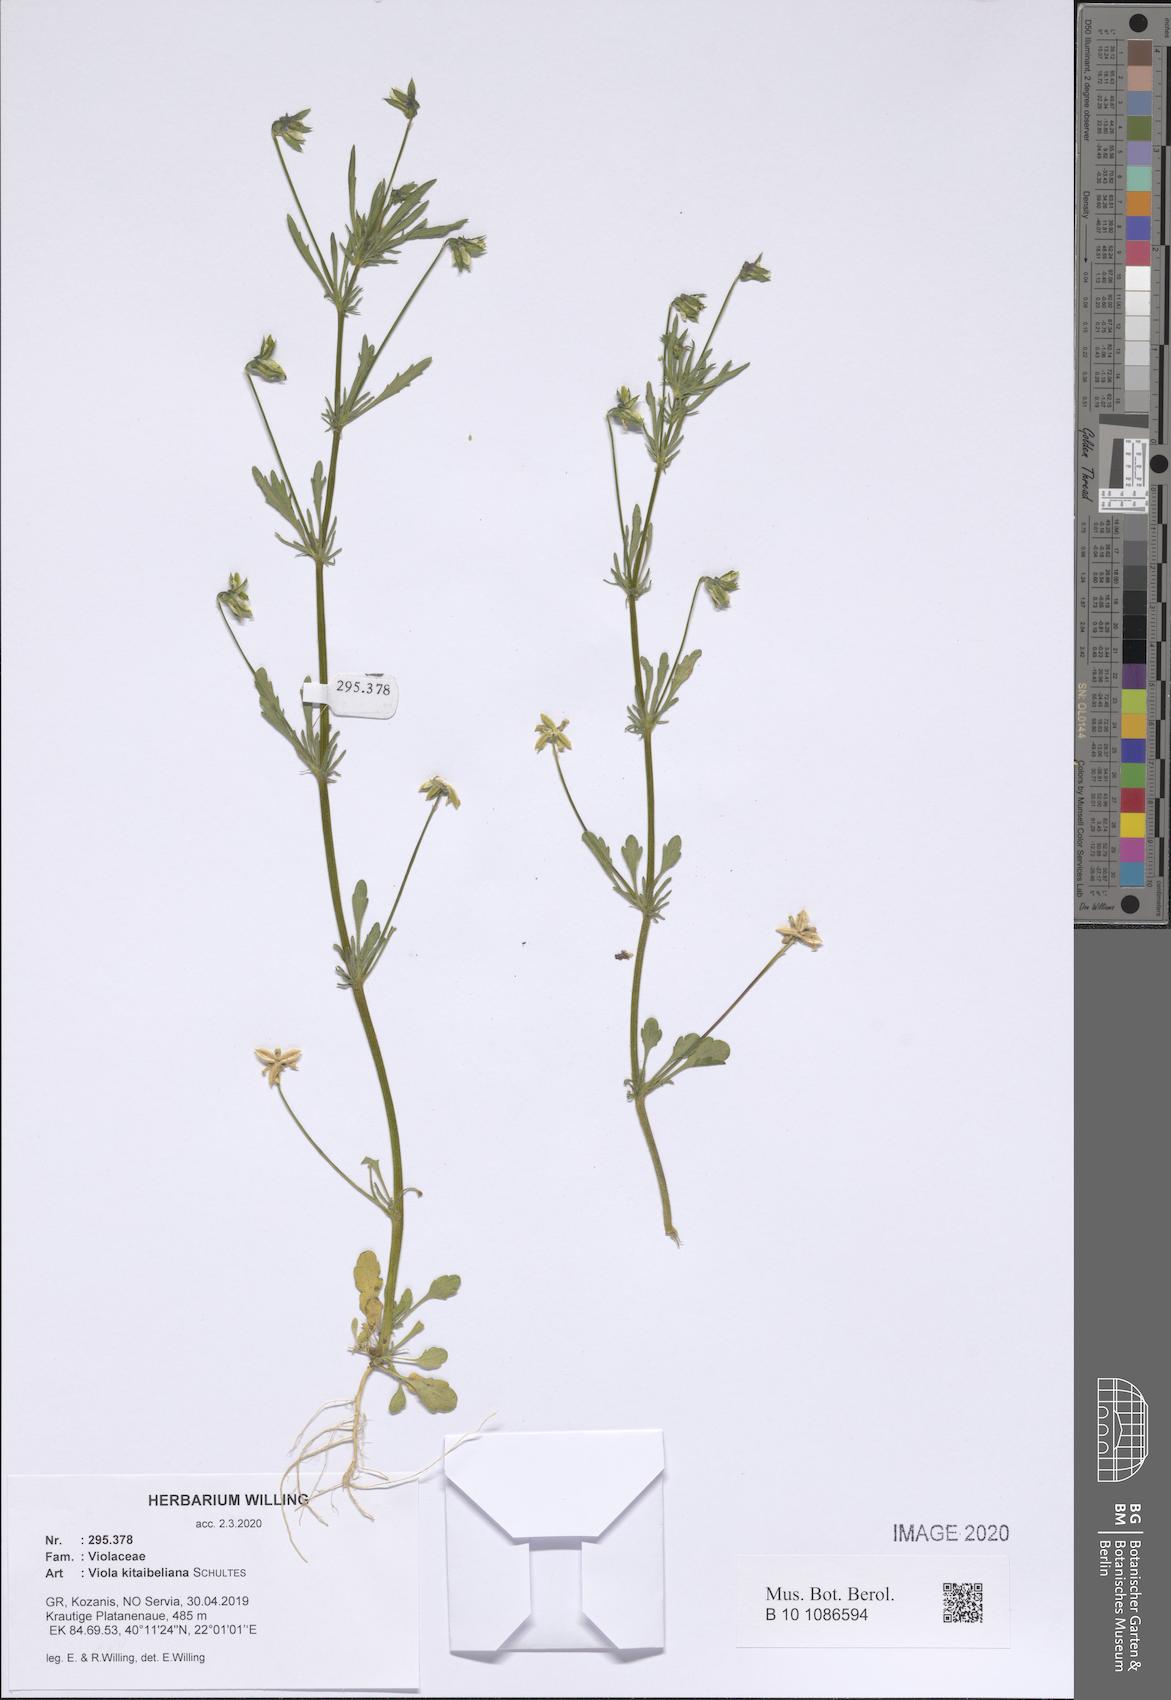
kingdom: Plantae
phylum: Tracheophyta
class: Magnoliopsida
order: Malpighiales
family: Violaceae
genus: Viola
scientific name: Viola kitaibeliana
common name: Dwarf pansy
